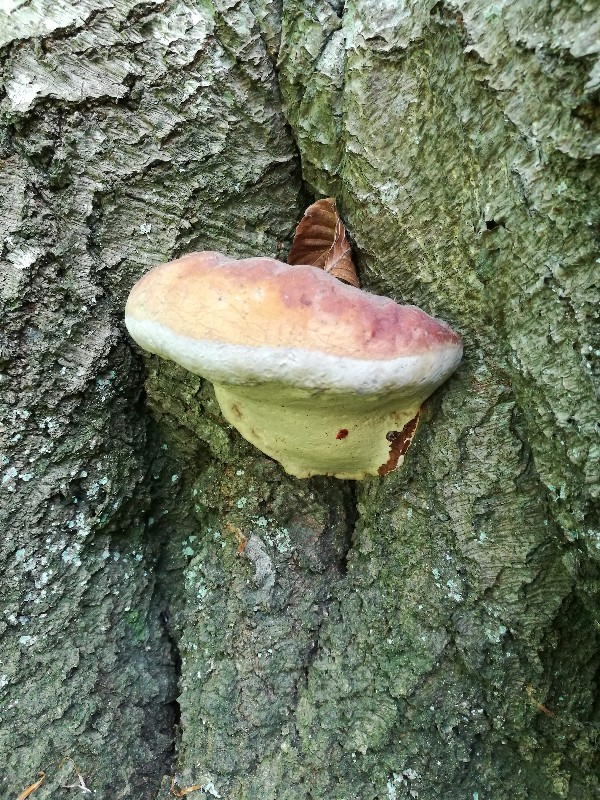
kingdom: Fungi
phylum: Basidiomycota
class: Agaricomycetes
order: Polyporales
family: Polyporaceae
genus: Ganoderma
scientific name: Ganoderma pfeifferi
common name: kobberrød lakporesvamp
